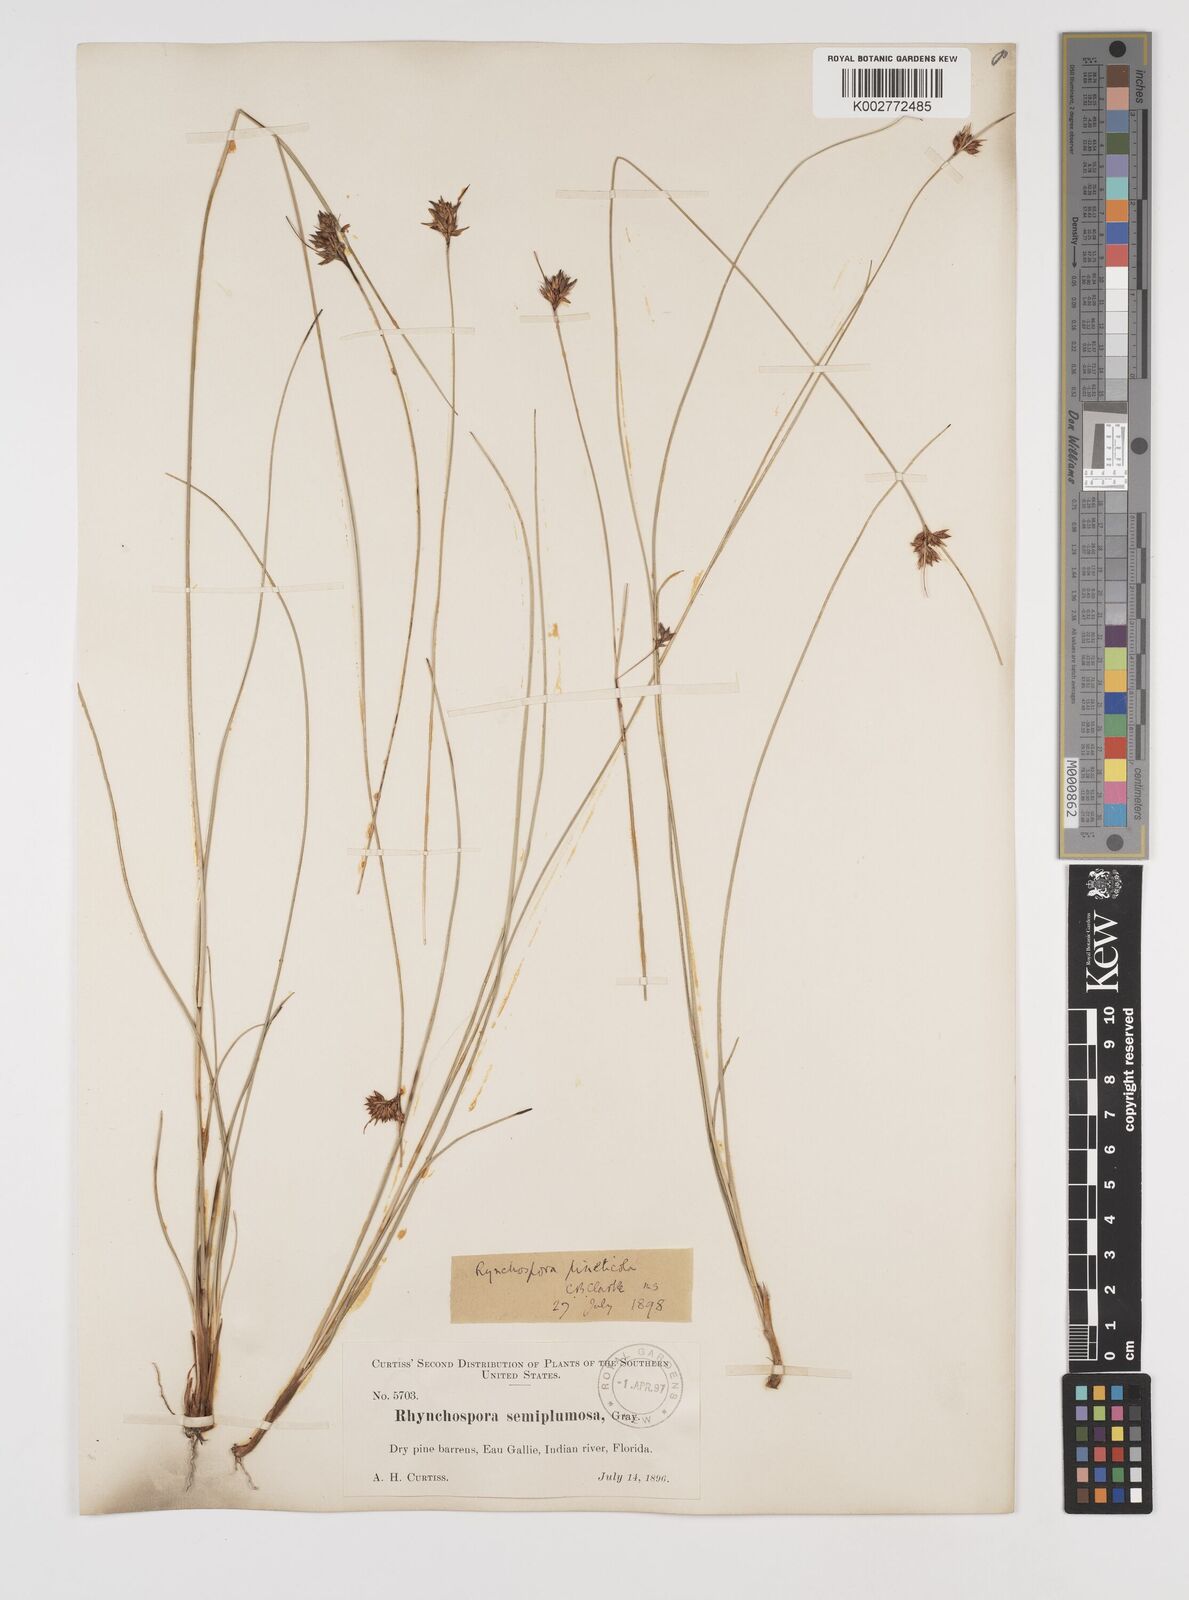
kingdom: Plantae
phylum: Tracheophyta
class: Liliopsida
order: Poales
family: Cyperaceae
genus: Rhynchospora
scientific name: Rhynchospora intermedia
